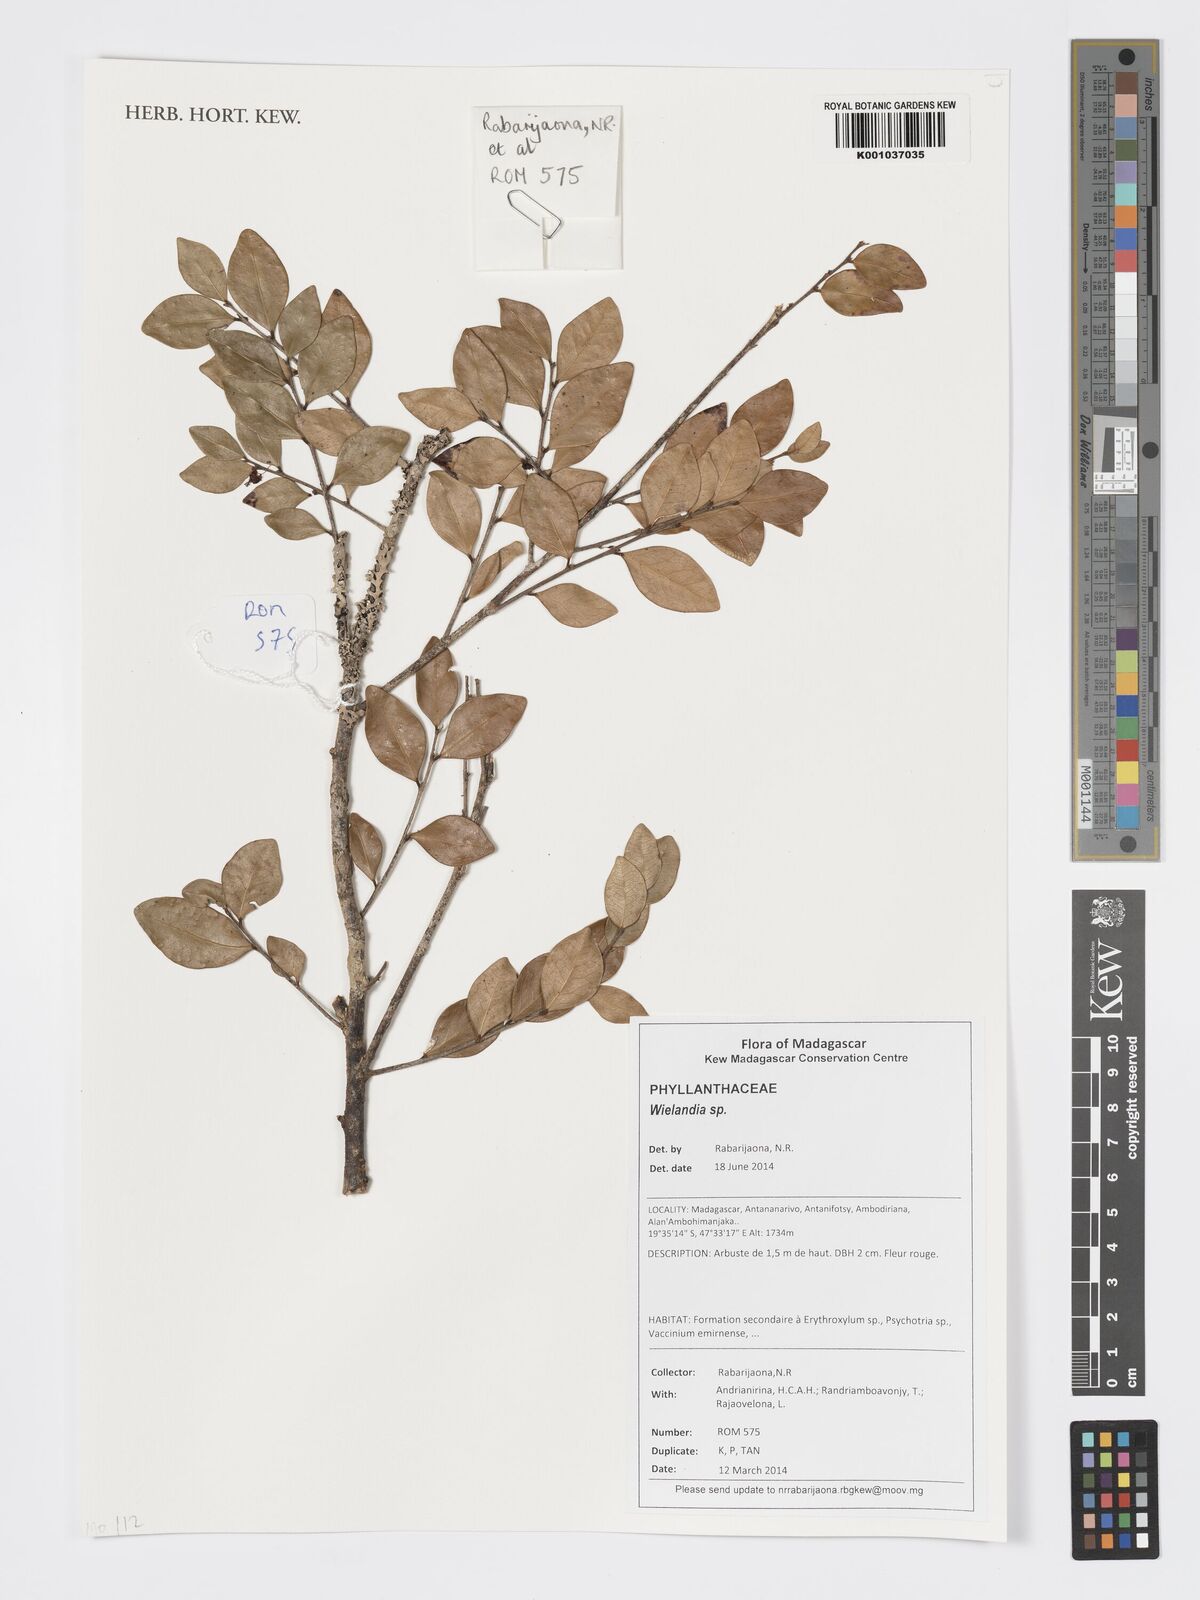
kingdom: Plantae
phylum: Tracheophyta
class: Magnoliopsida
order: Malpighiales
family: Phyllanthaceae
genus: Wielandia
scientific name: Wielandia
